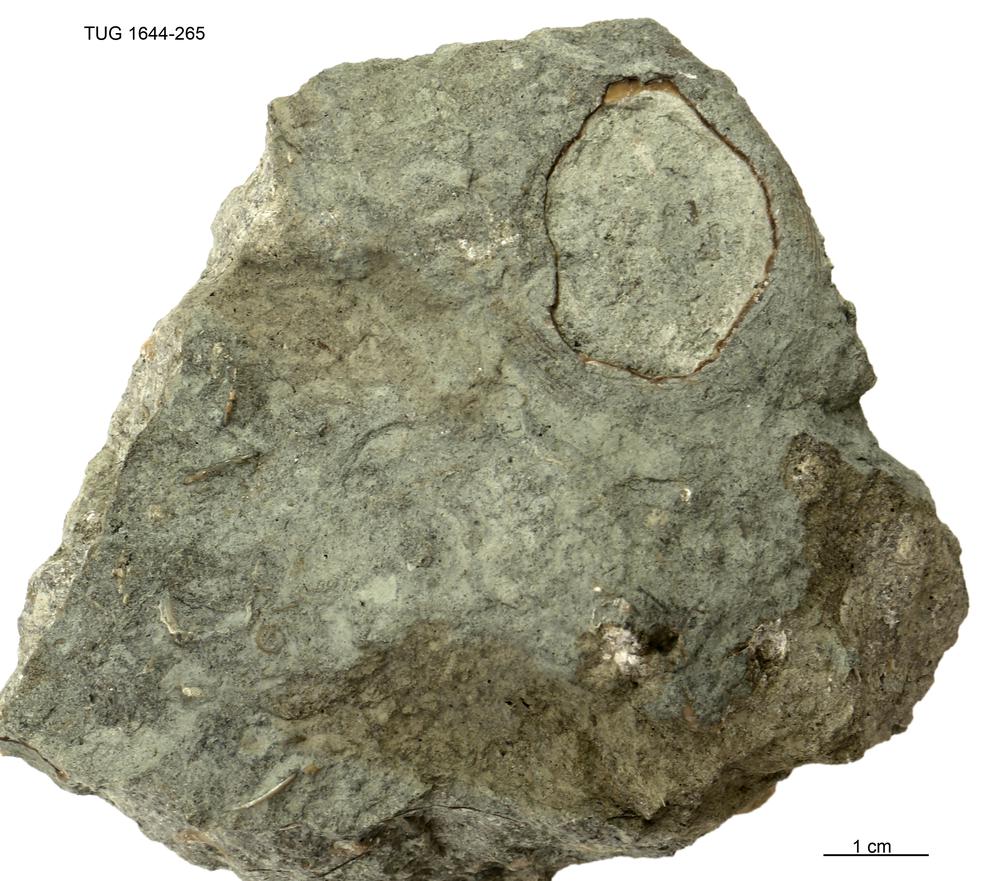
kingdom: Animalia
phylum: Mollusca
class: Monoplacophora
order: Tryblidiida
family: Tryblidiidae
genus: Pilina
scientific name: Pilina
